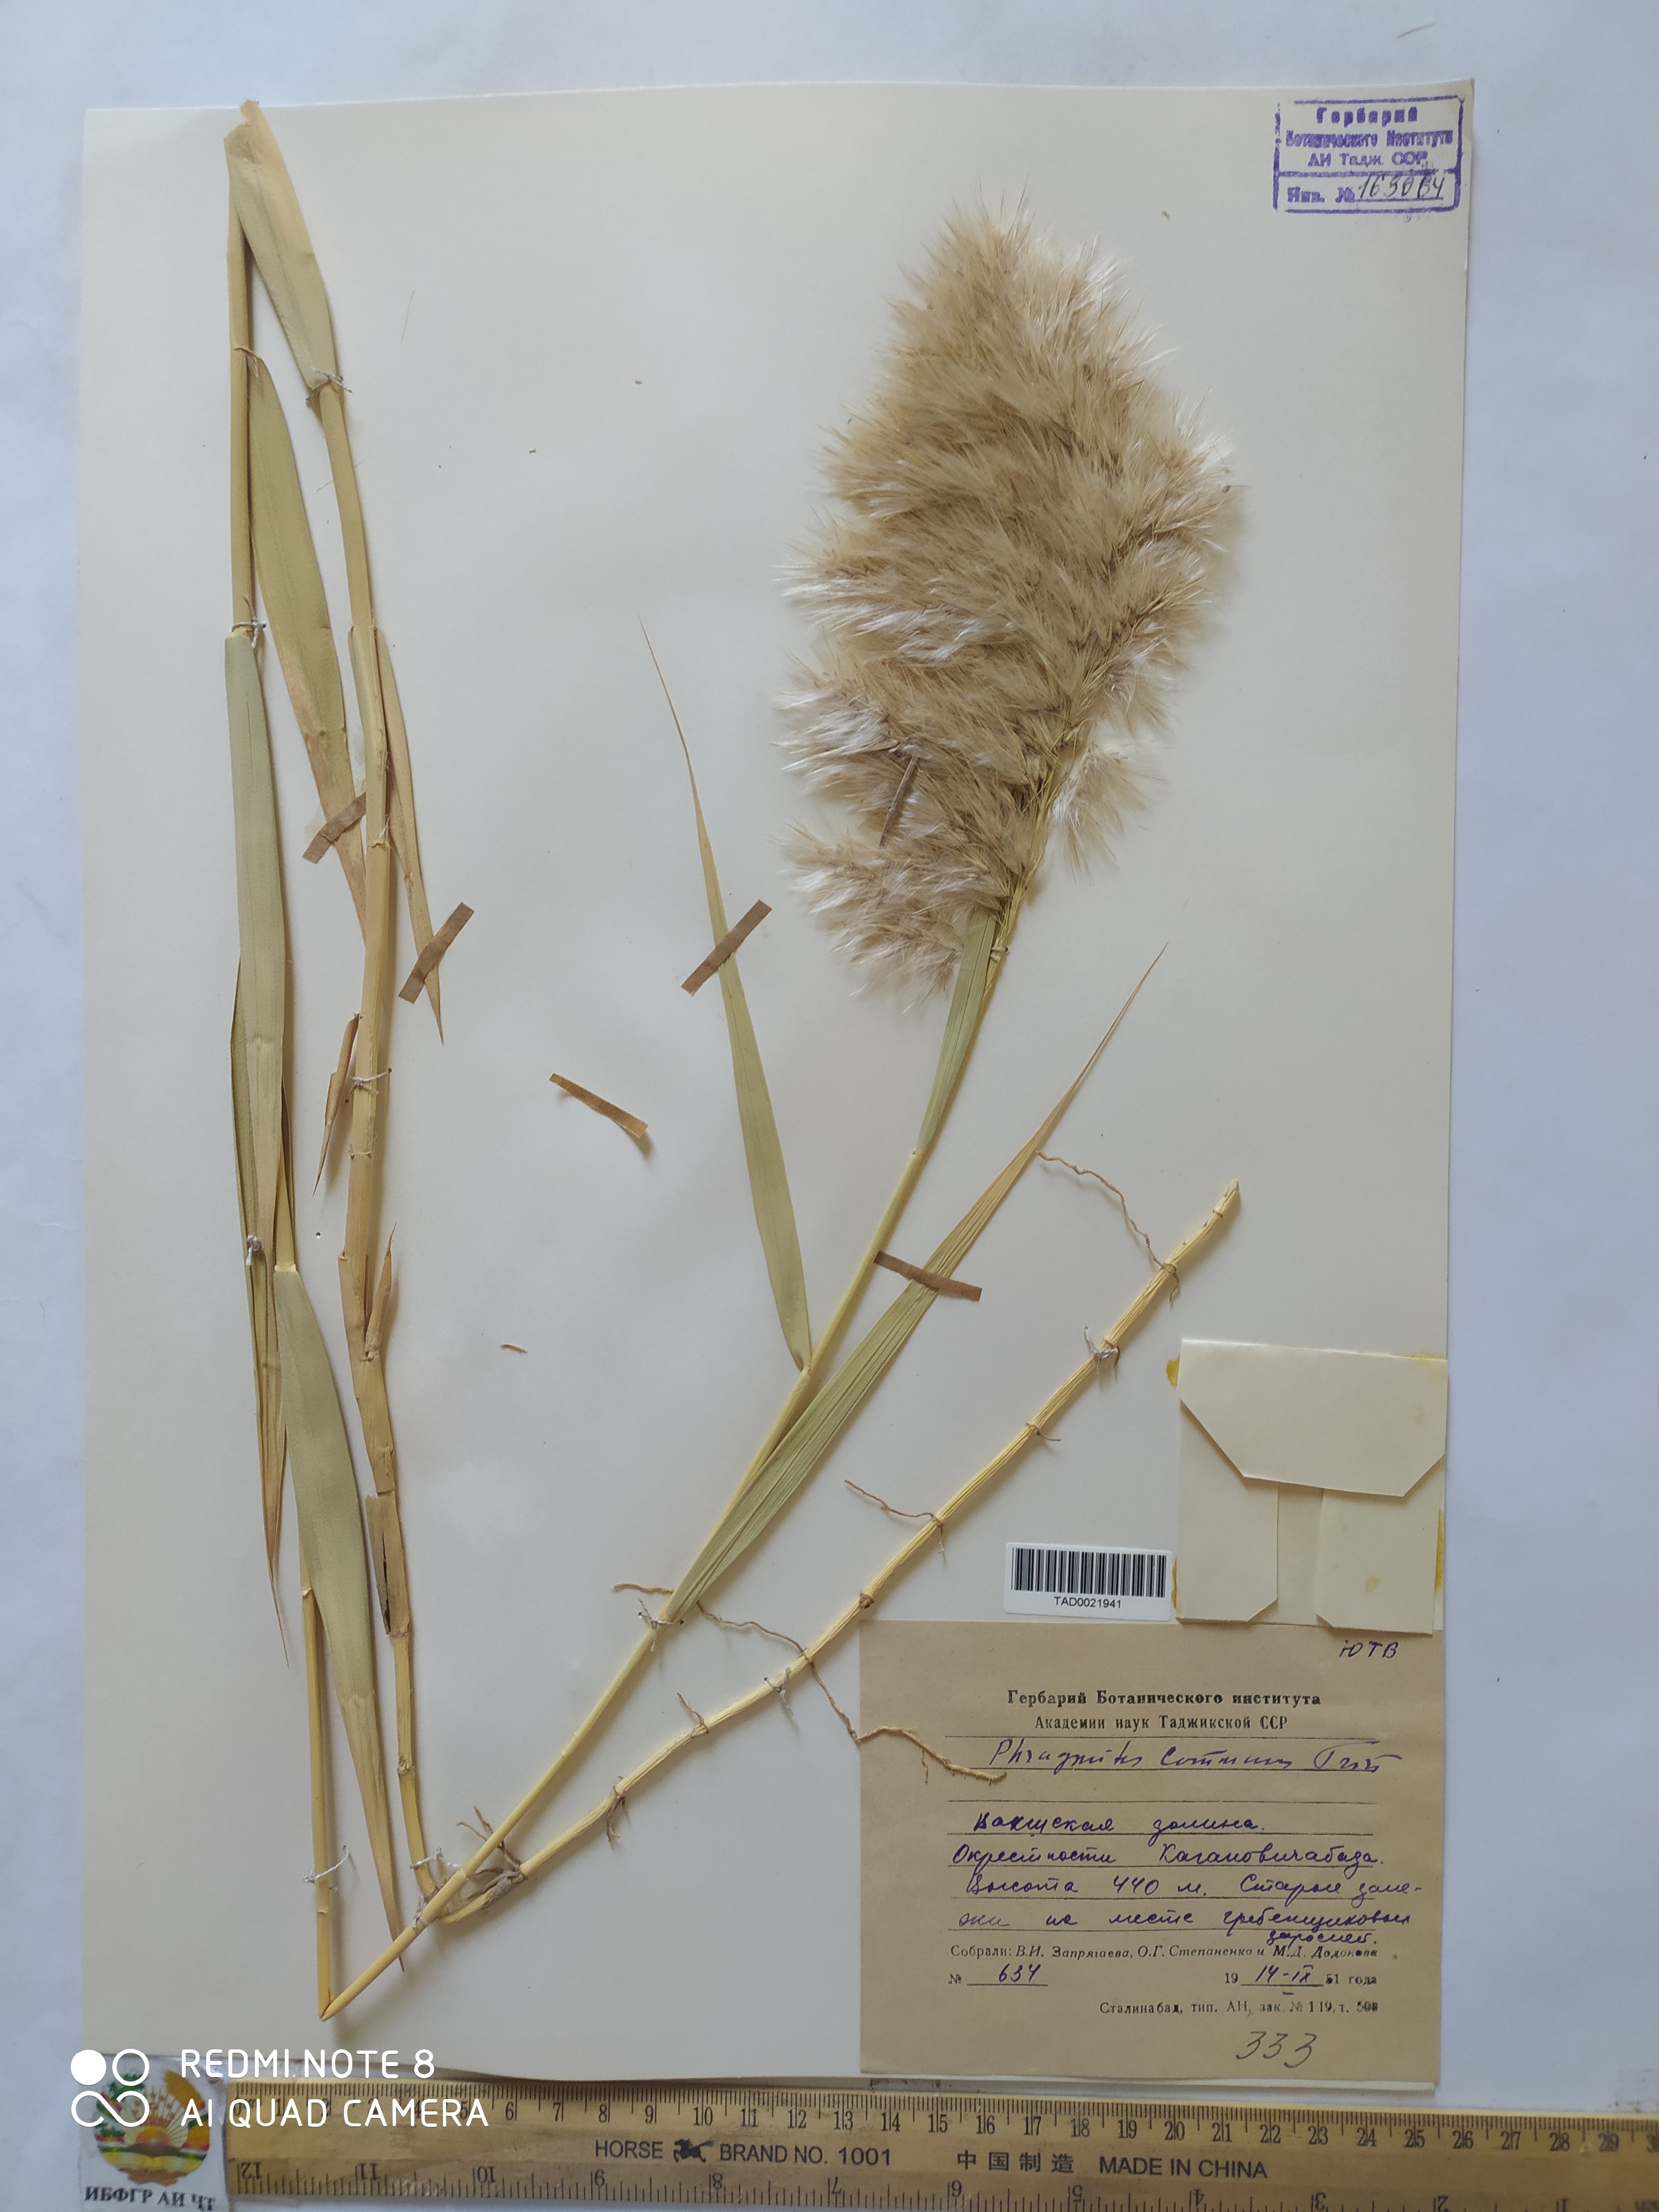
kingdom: Plantae
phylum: Tracheophyta
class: Liliopsida
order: Poales
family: Poaceae
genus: Phragmites
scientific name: Phragmites australis
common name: Common reed
